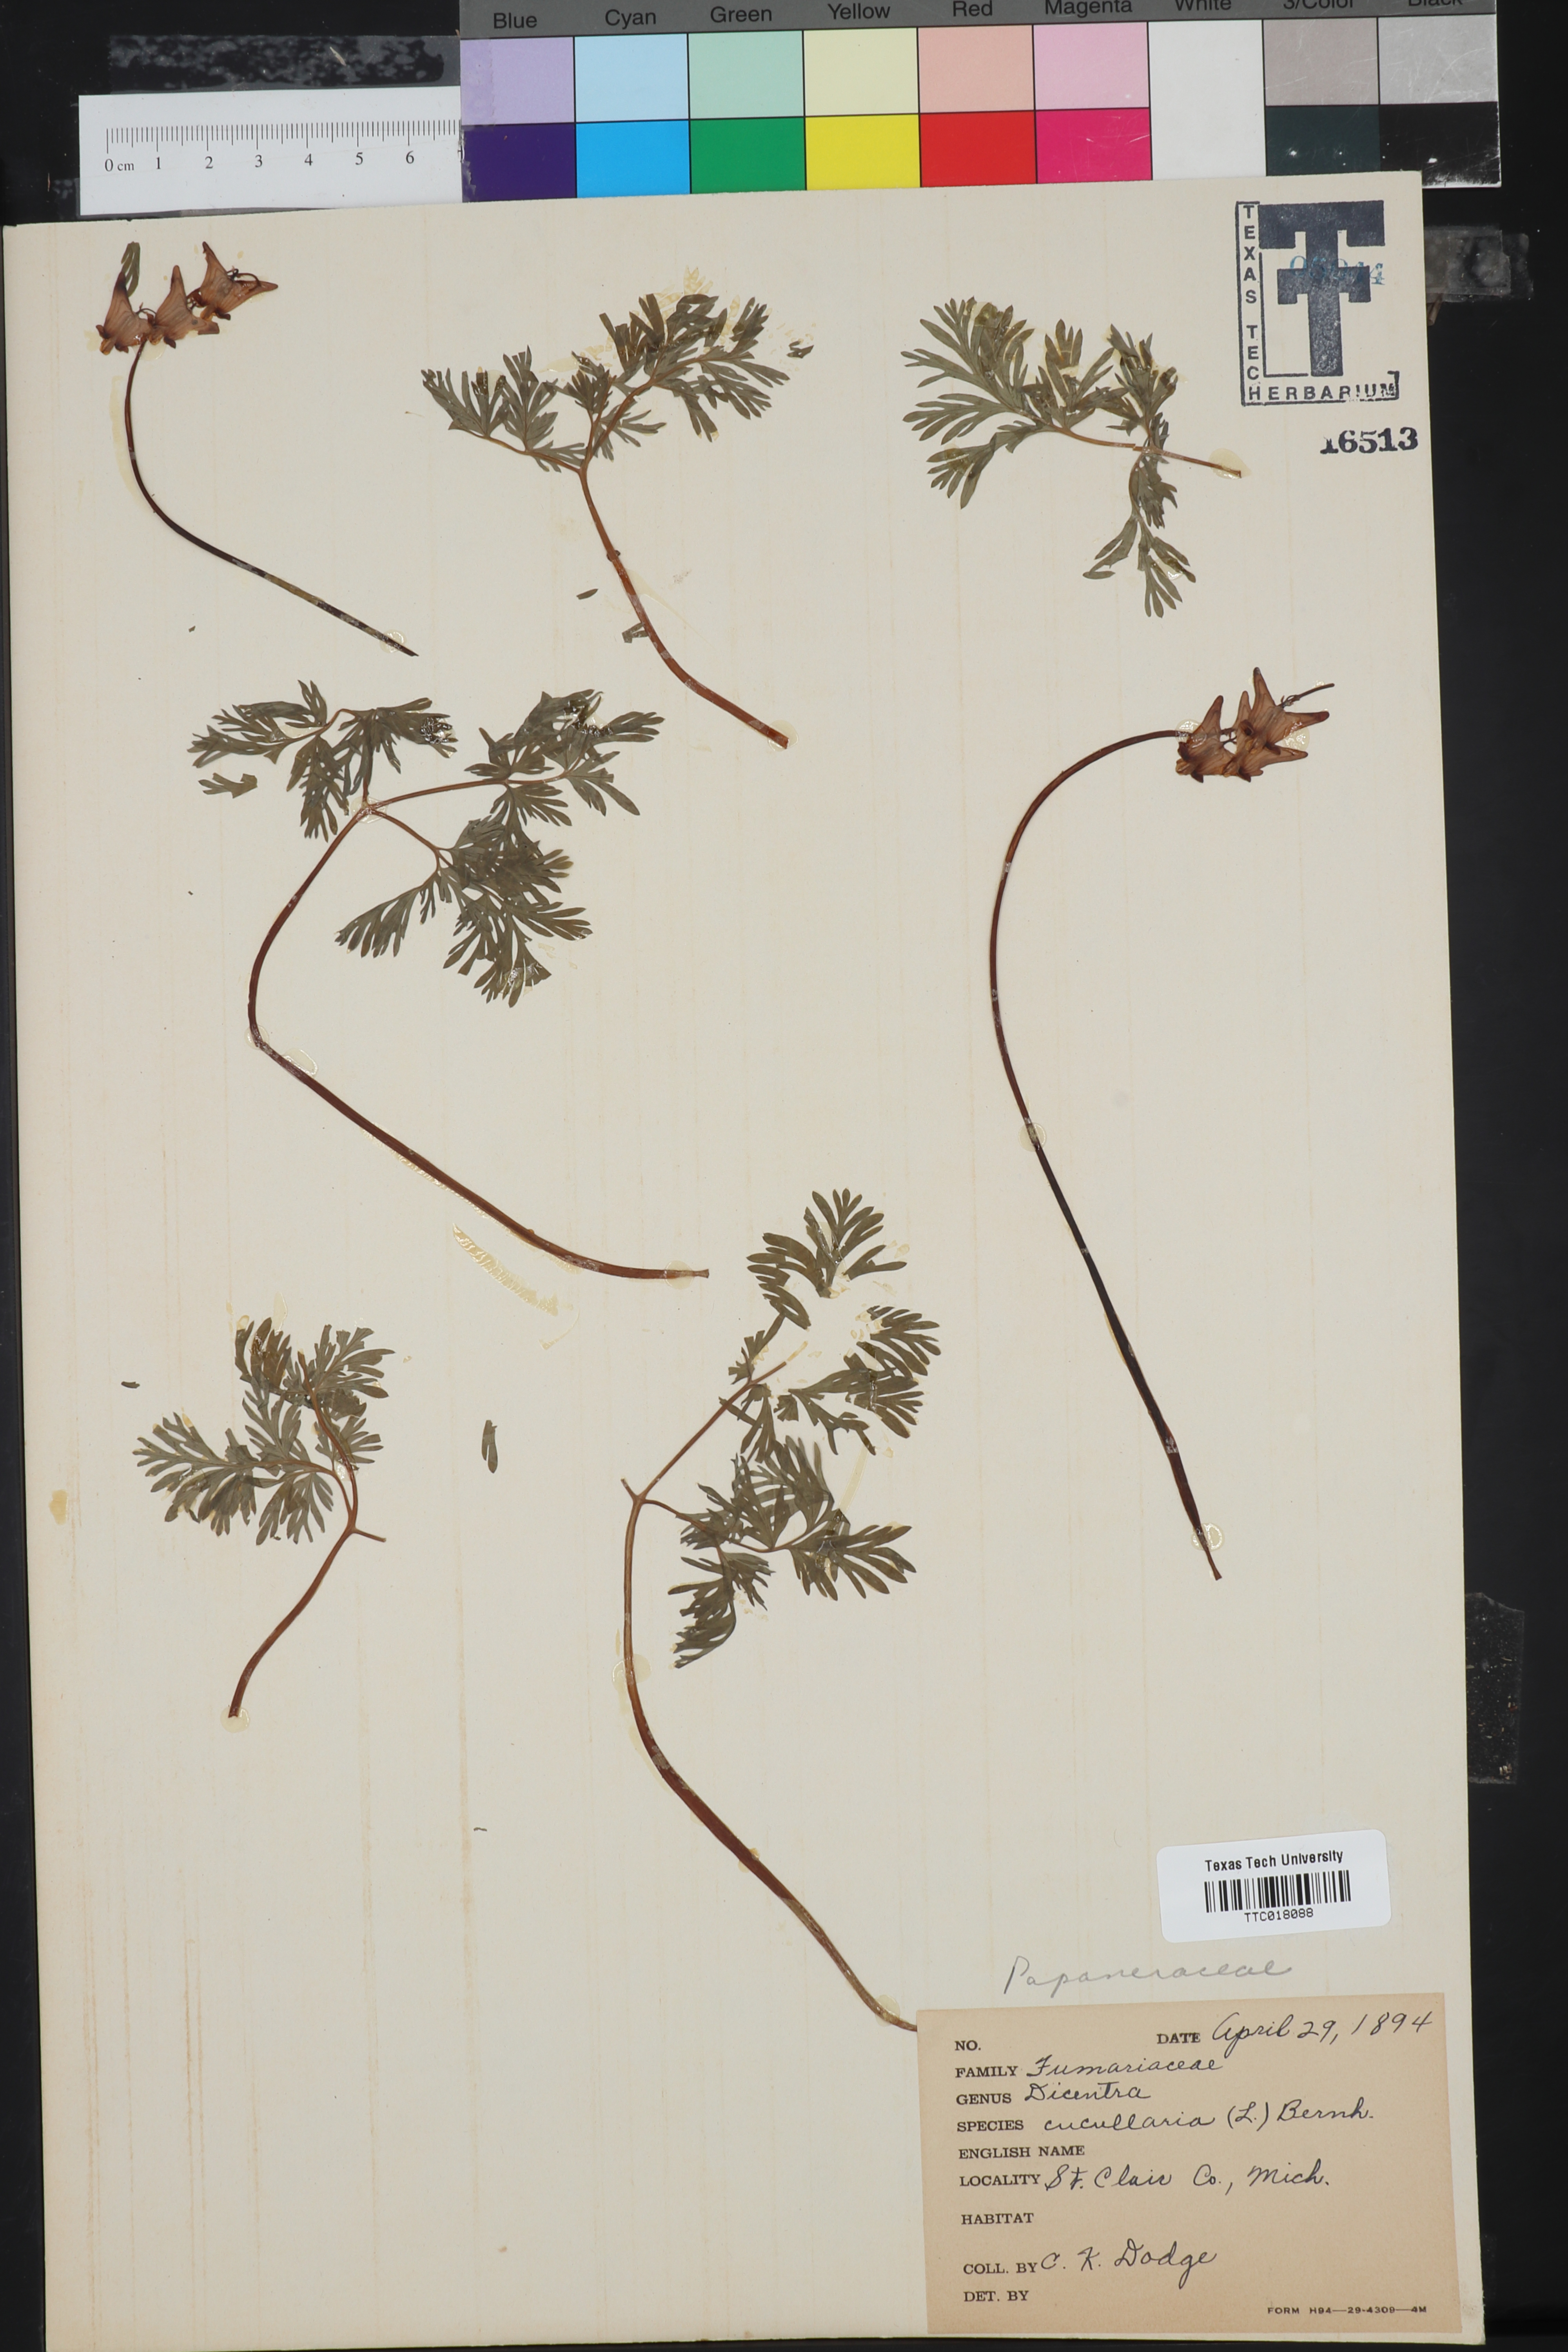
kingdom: Plantae
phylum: Tracheophyta
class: Magnoliopsida
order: Ranunculales
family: Papaveraceae
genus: Dicentra
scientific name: Dicentra cucullaria
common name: Dutchman's breeches
